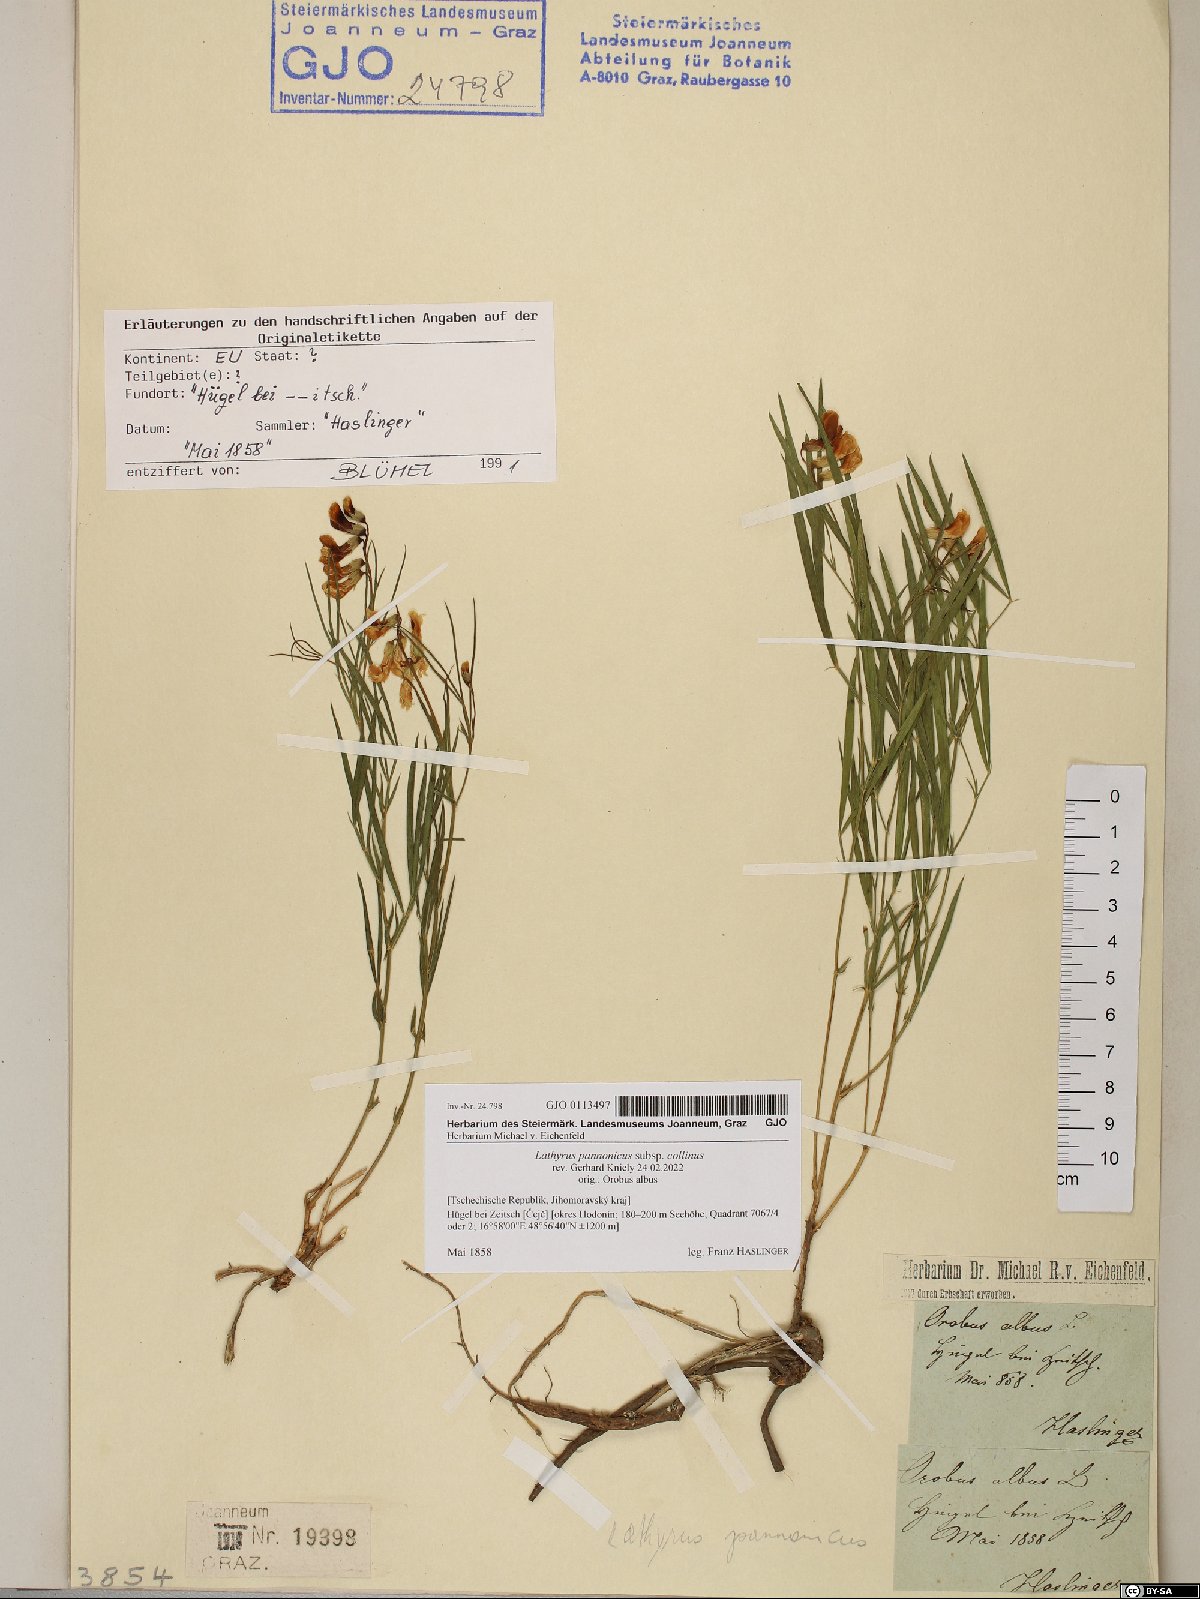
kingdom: Plantae
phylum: Tracheophyta
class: Magnoliopsida
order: Fabales
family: Fabaceae
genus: Lathyrus
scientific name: Lathyrus pannonicus
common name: Pea
